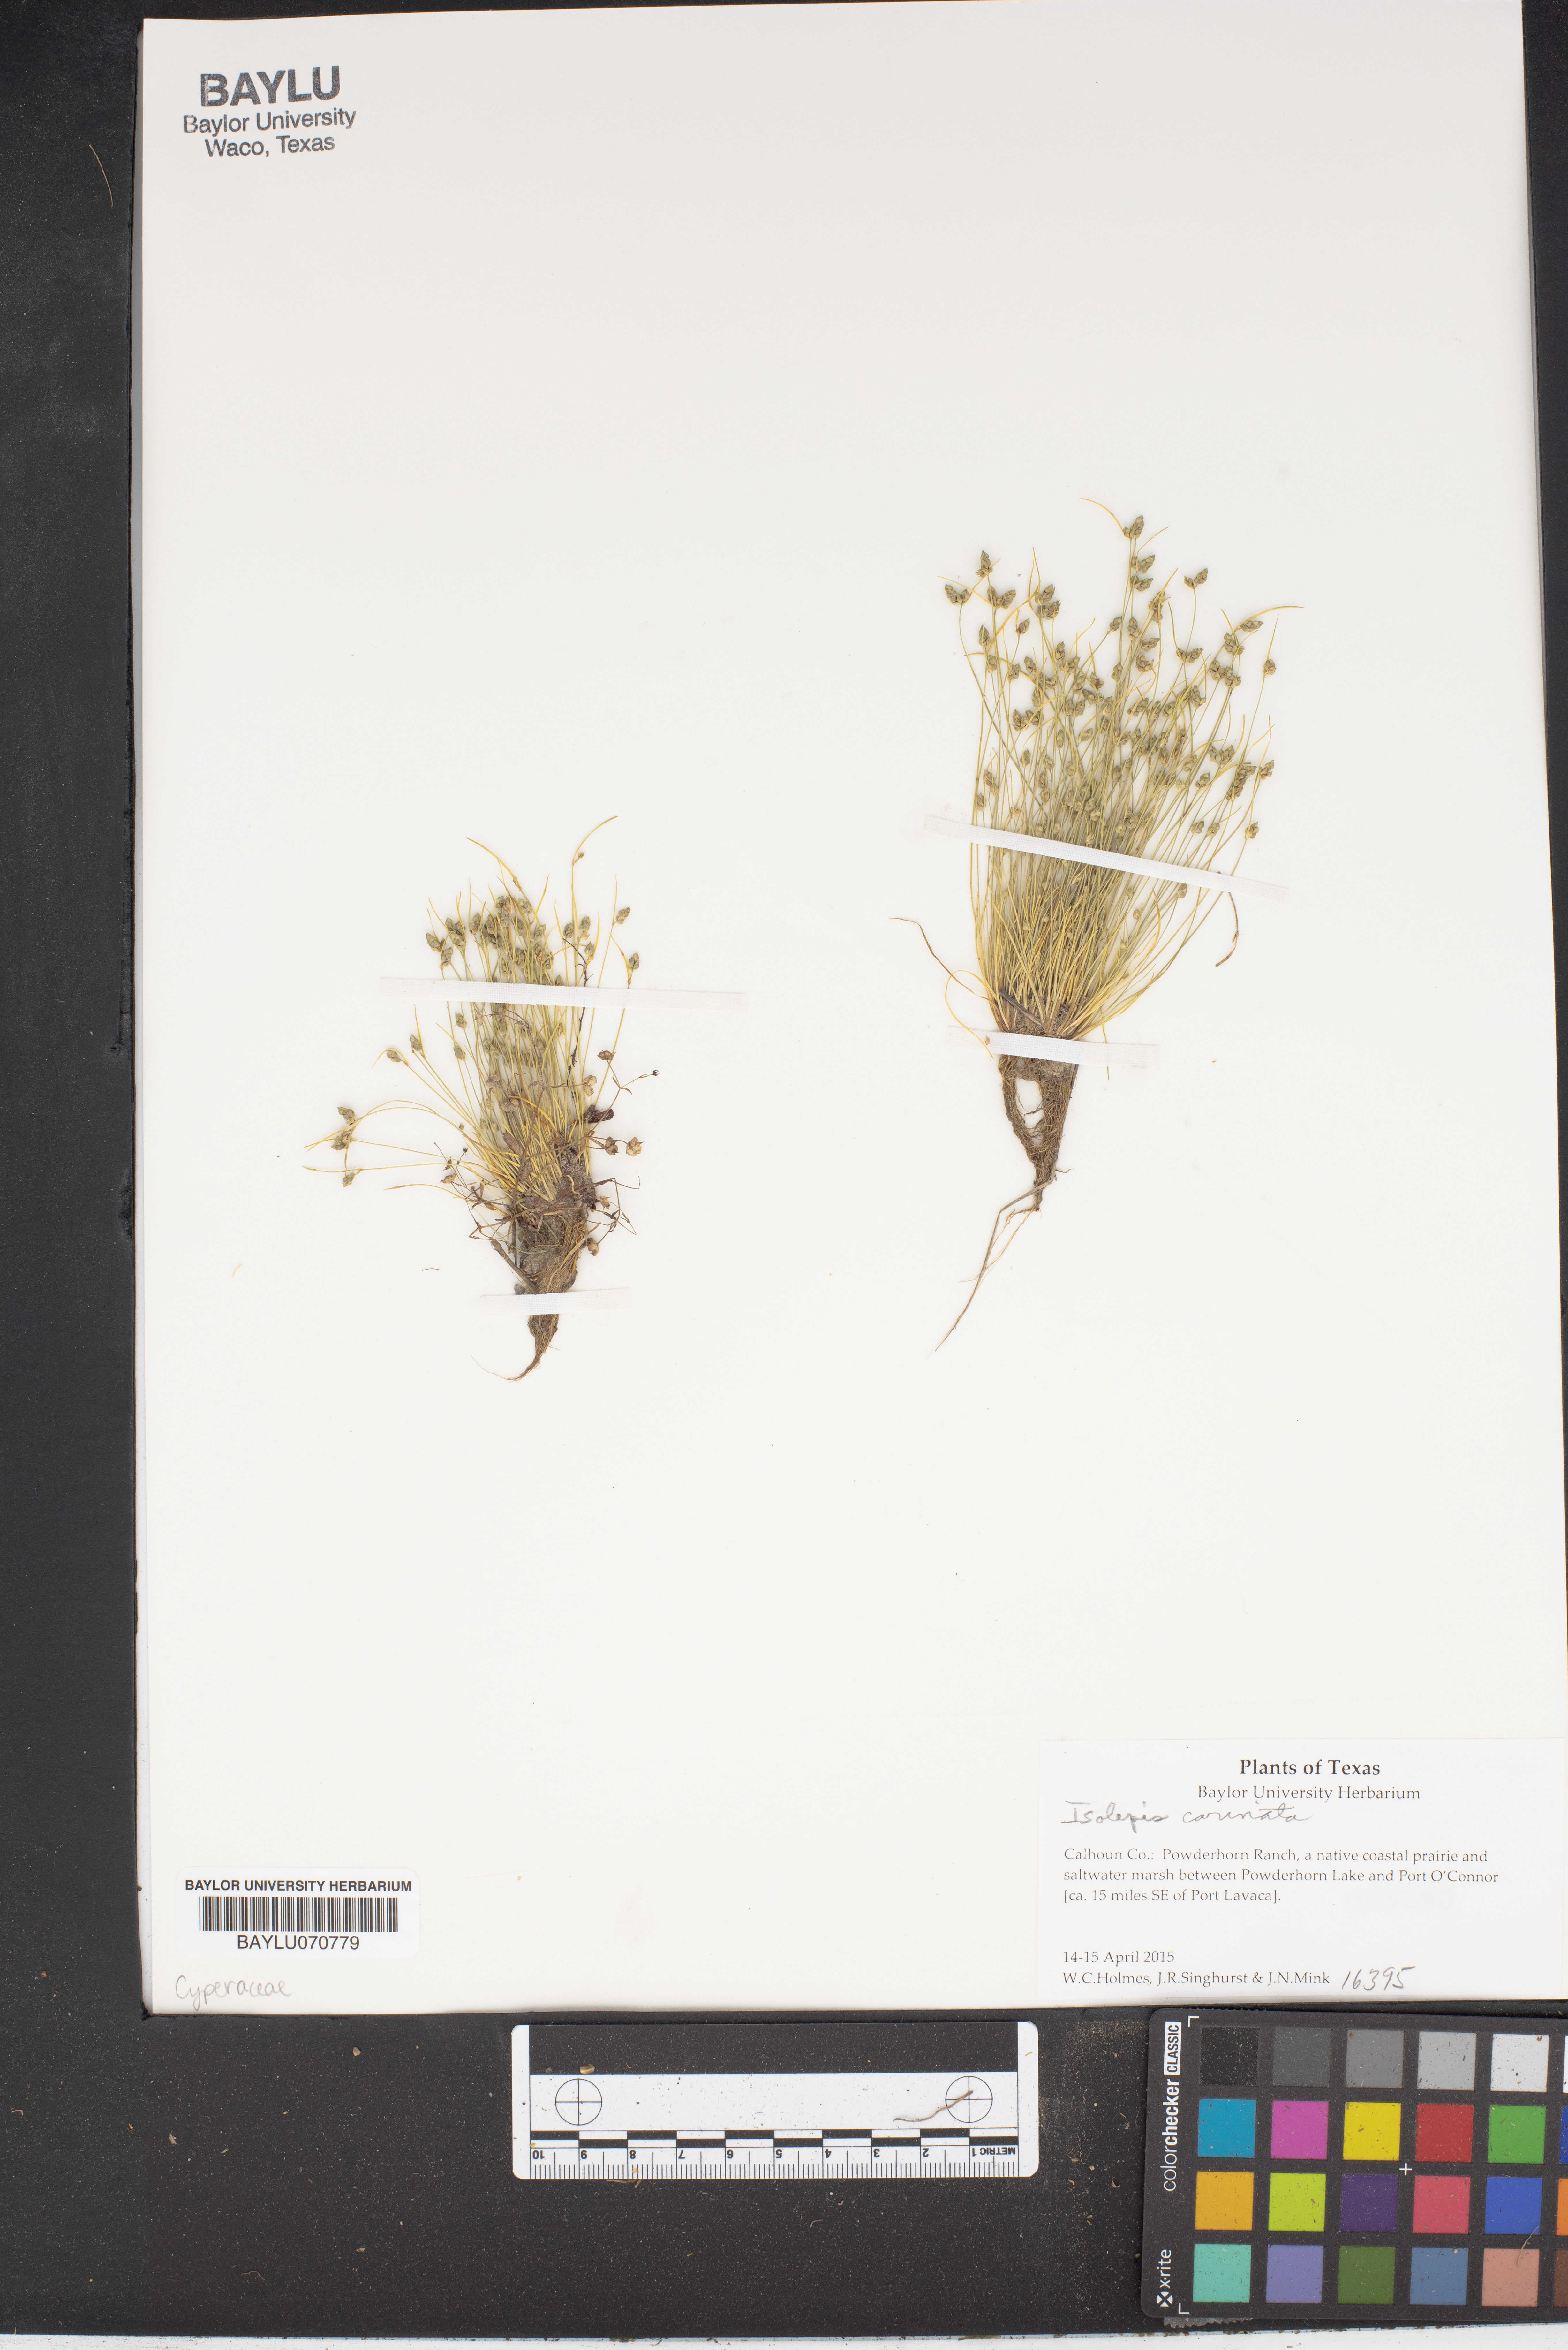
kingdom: Plantae
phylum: Tracheophyta
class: Liliopsida
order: Poales
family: Cyperaceae
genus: Isolepis
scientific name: Isolepis carinata
